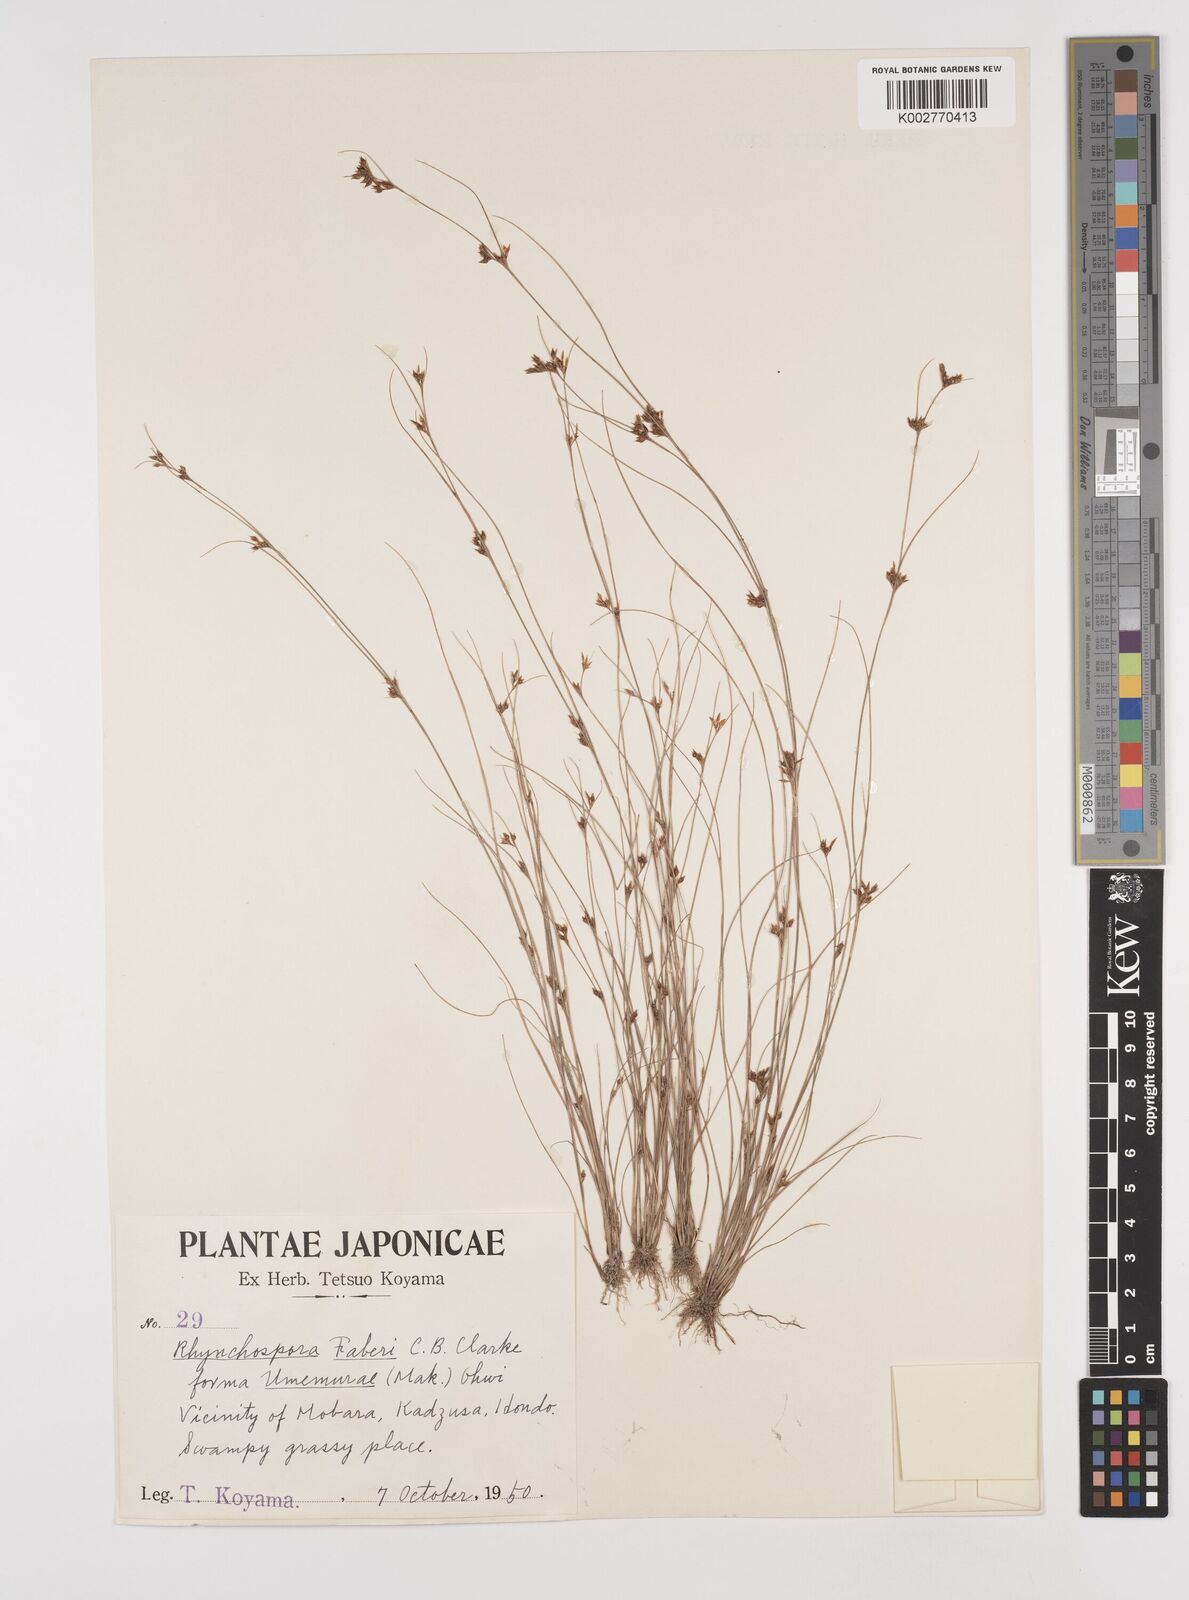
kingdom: Plantae
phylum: Tracheophyta
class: Liliopsida
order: Poales
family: Cyperaceae
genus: Rhynchospora
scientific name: Rhynchospora faberi
